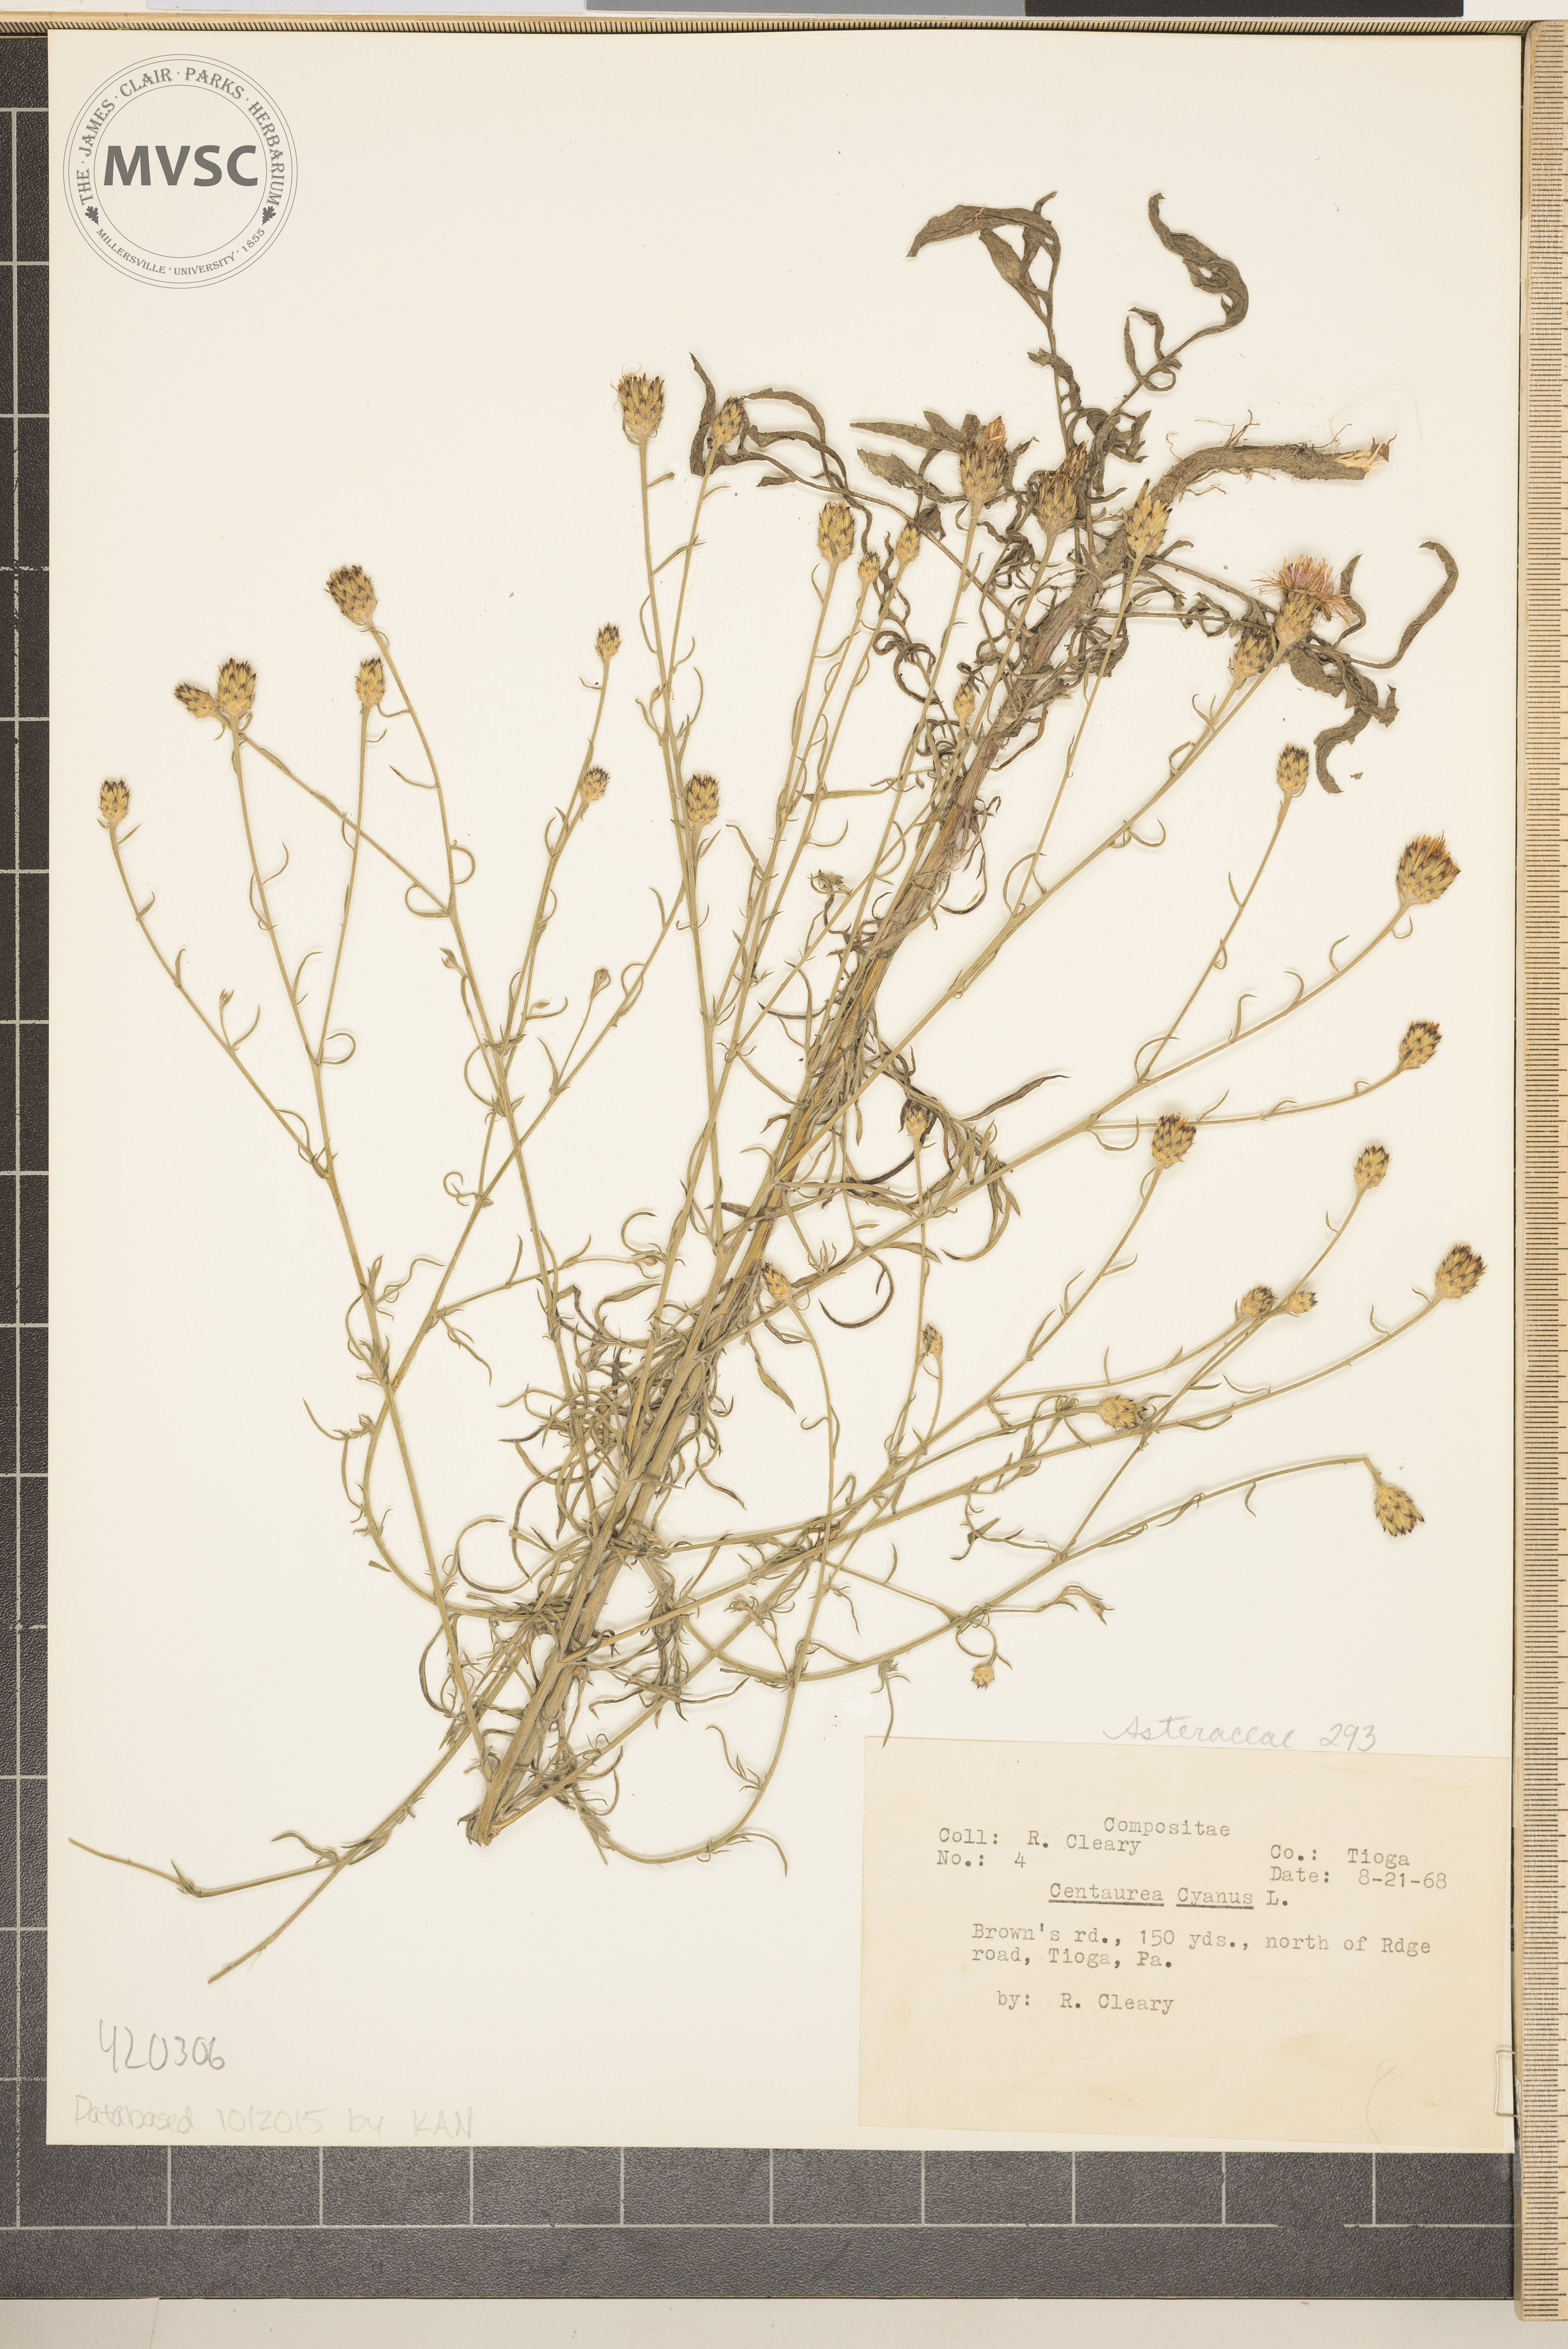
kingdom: Plantae
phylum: Tracheophyta
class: Magnoliopsida
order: Asterales
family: Asteraceae
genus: Centaurea
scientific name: Centaurea cyanus
